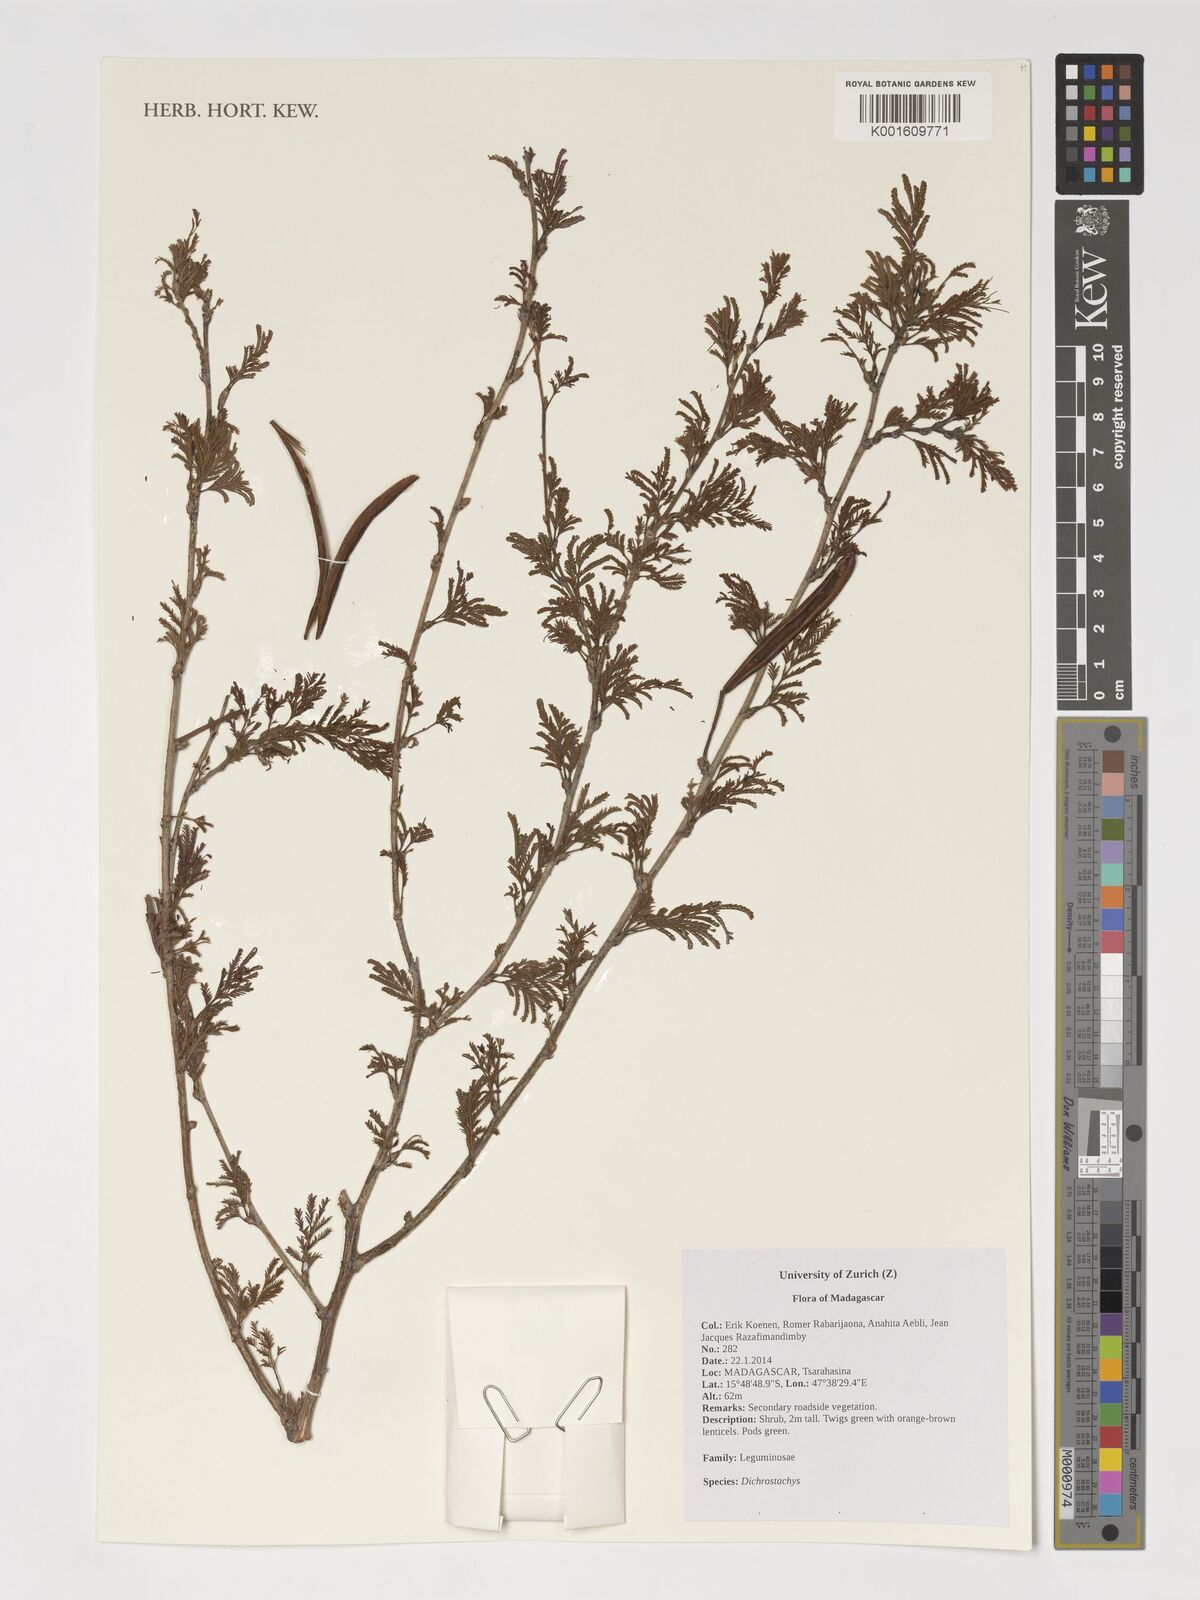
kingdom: Plantae
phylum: Tracheophyta
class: Magnoliopsida
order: Fabales
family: Fabaceae
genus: Dichrostachys
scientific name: Dichrostachys
